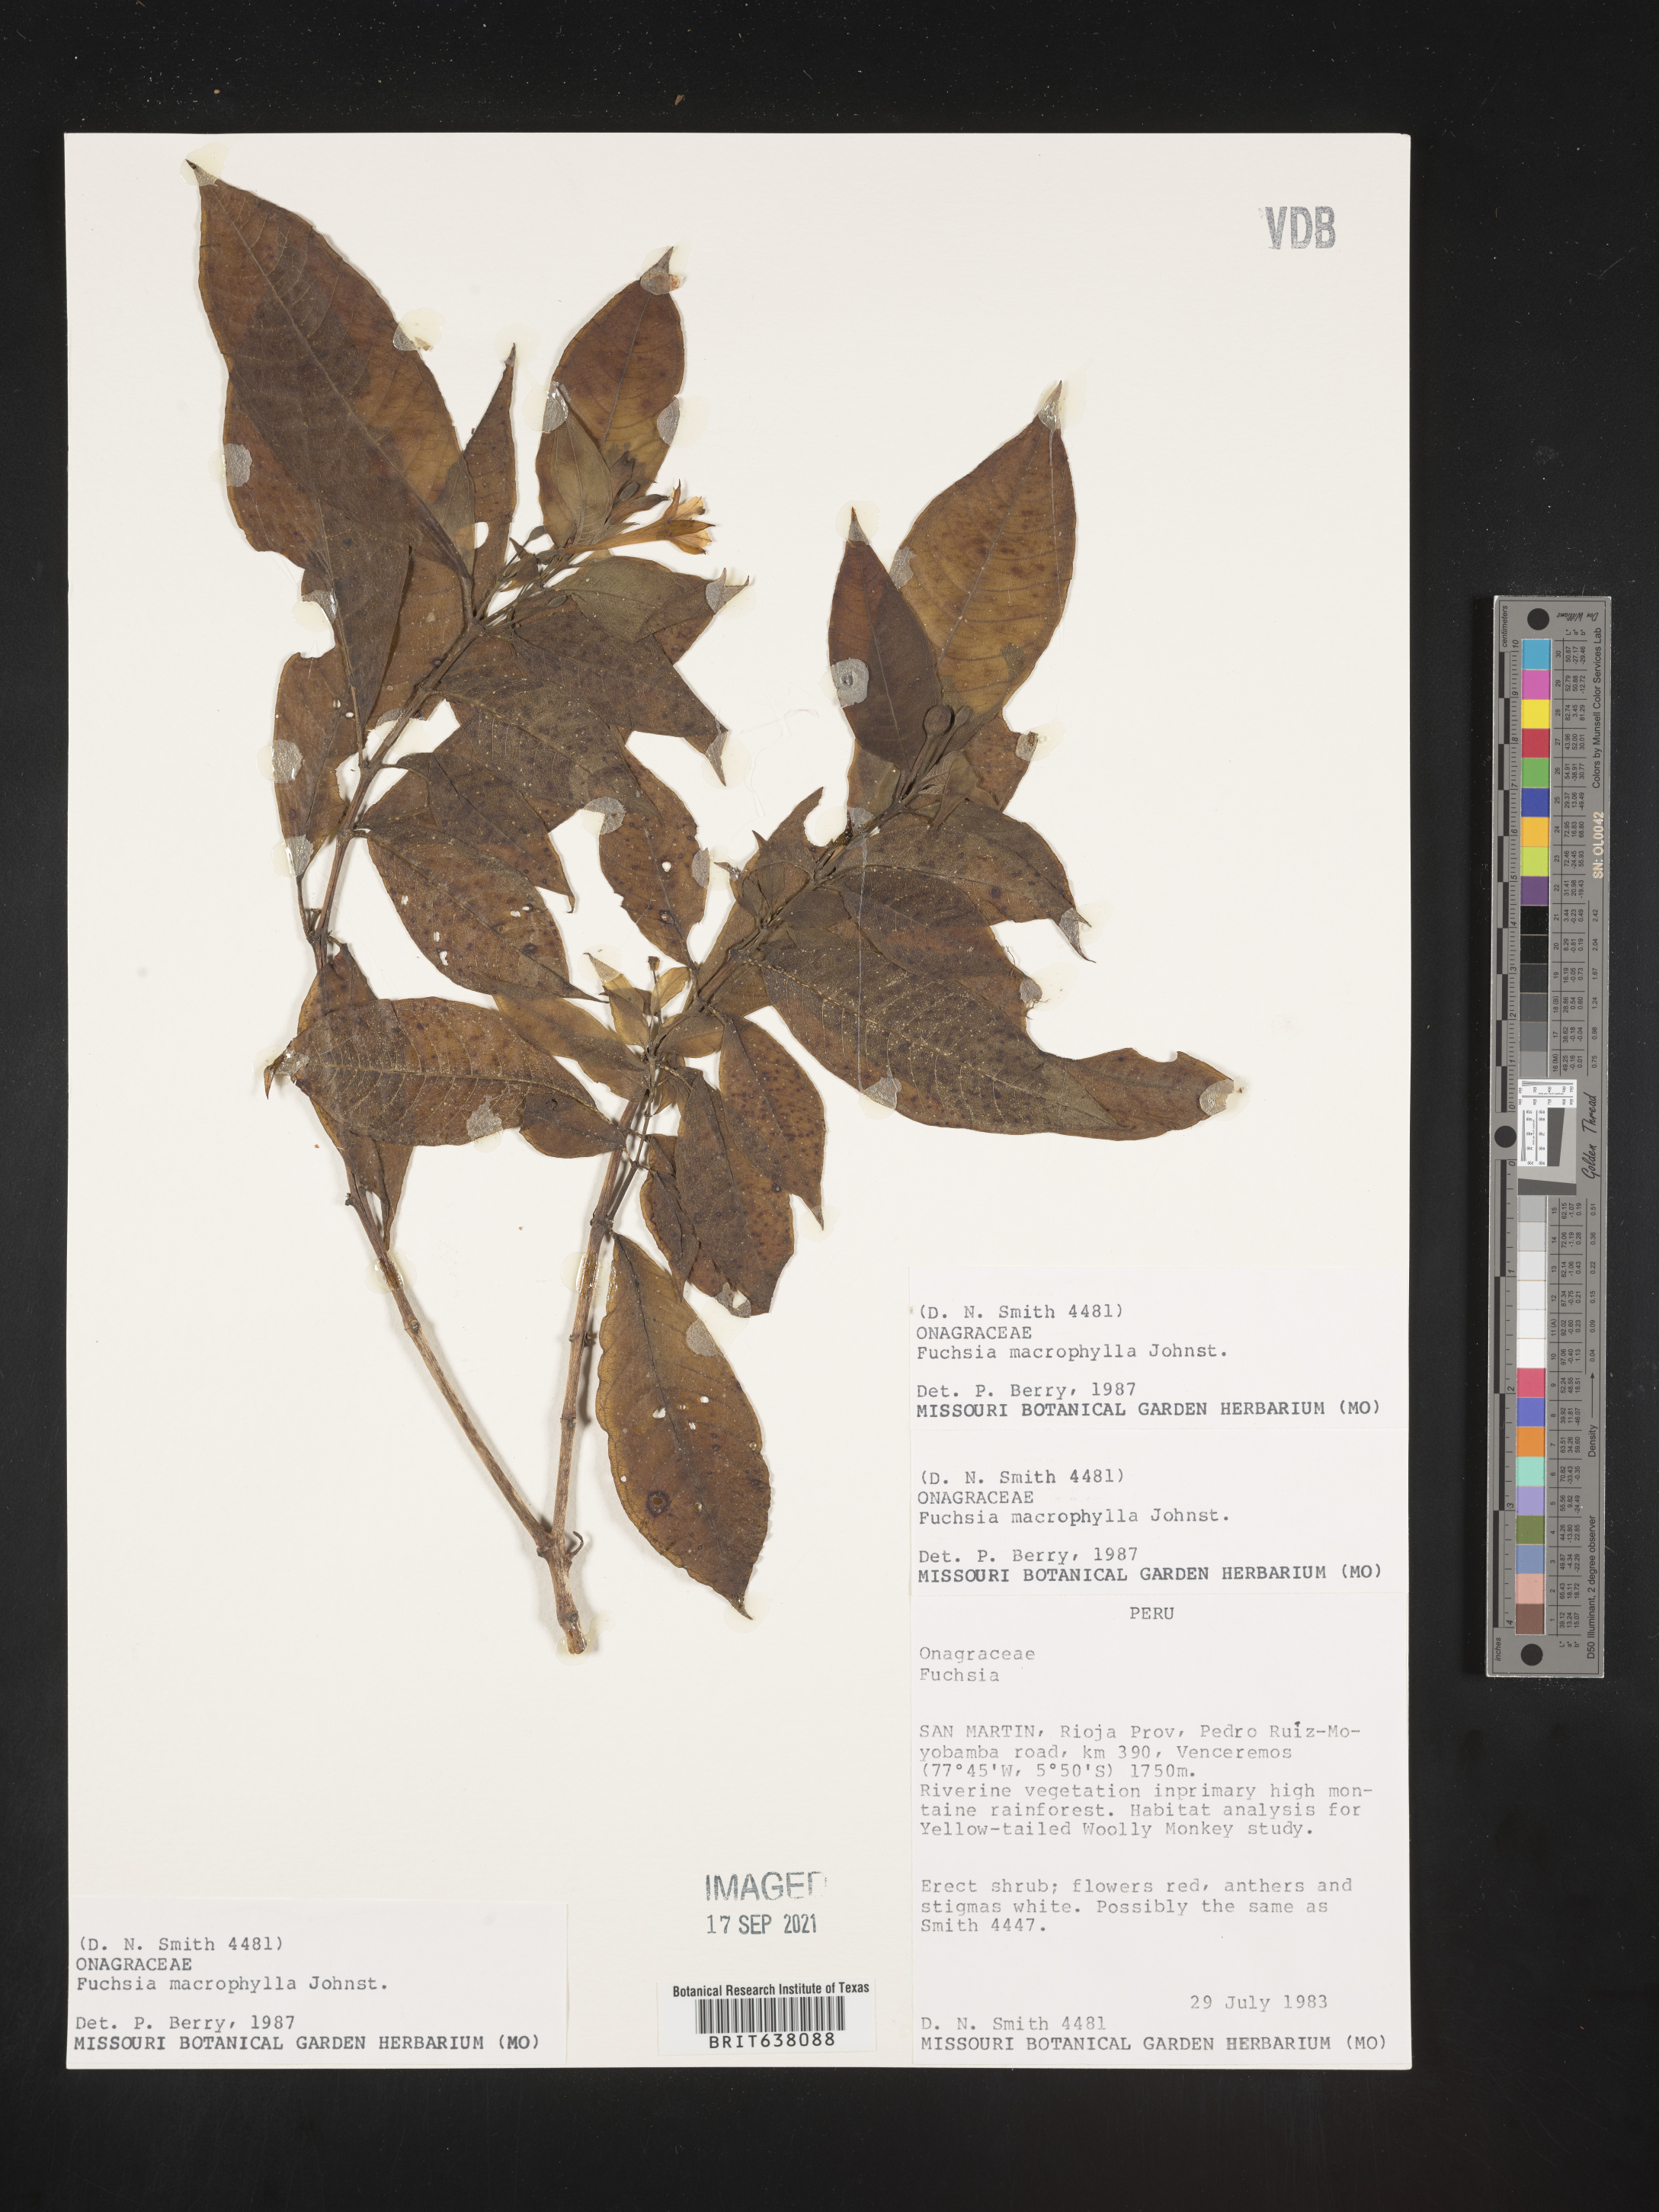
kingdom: Plantae
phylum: Tracheophyta
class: Magnoliopsida
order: Myrtales
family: Onagraceae
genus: Fuchsia
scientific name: Fuchsia
